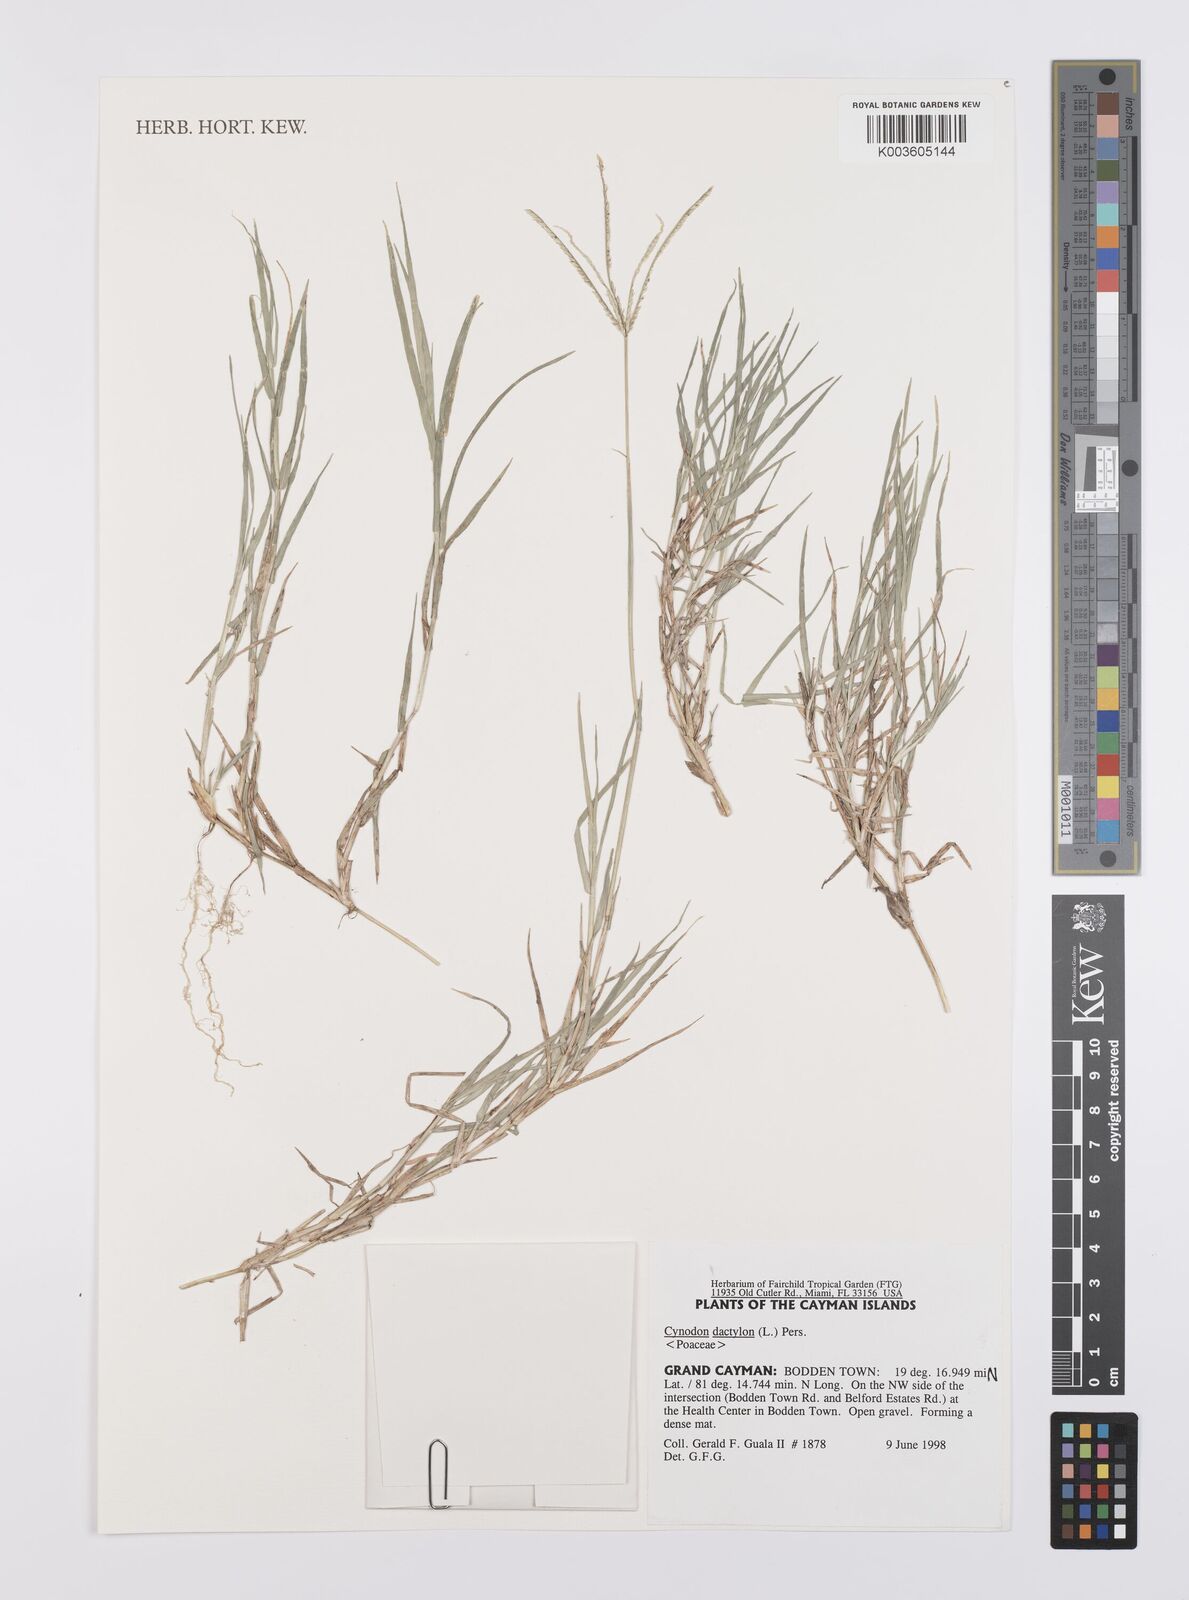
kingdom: Plantae
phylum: Tracheophyta
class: Liliopsida
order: Poales
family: Poaceae
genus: Cynodon
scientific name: Cynodon dactylon
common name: Bermuda grass
